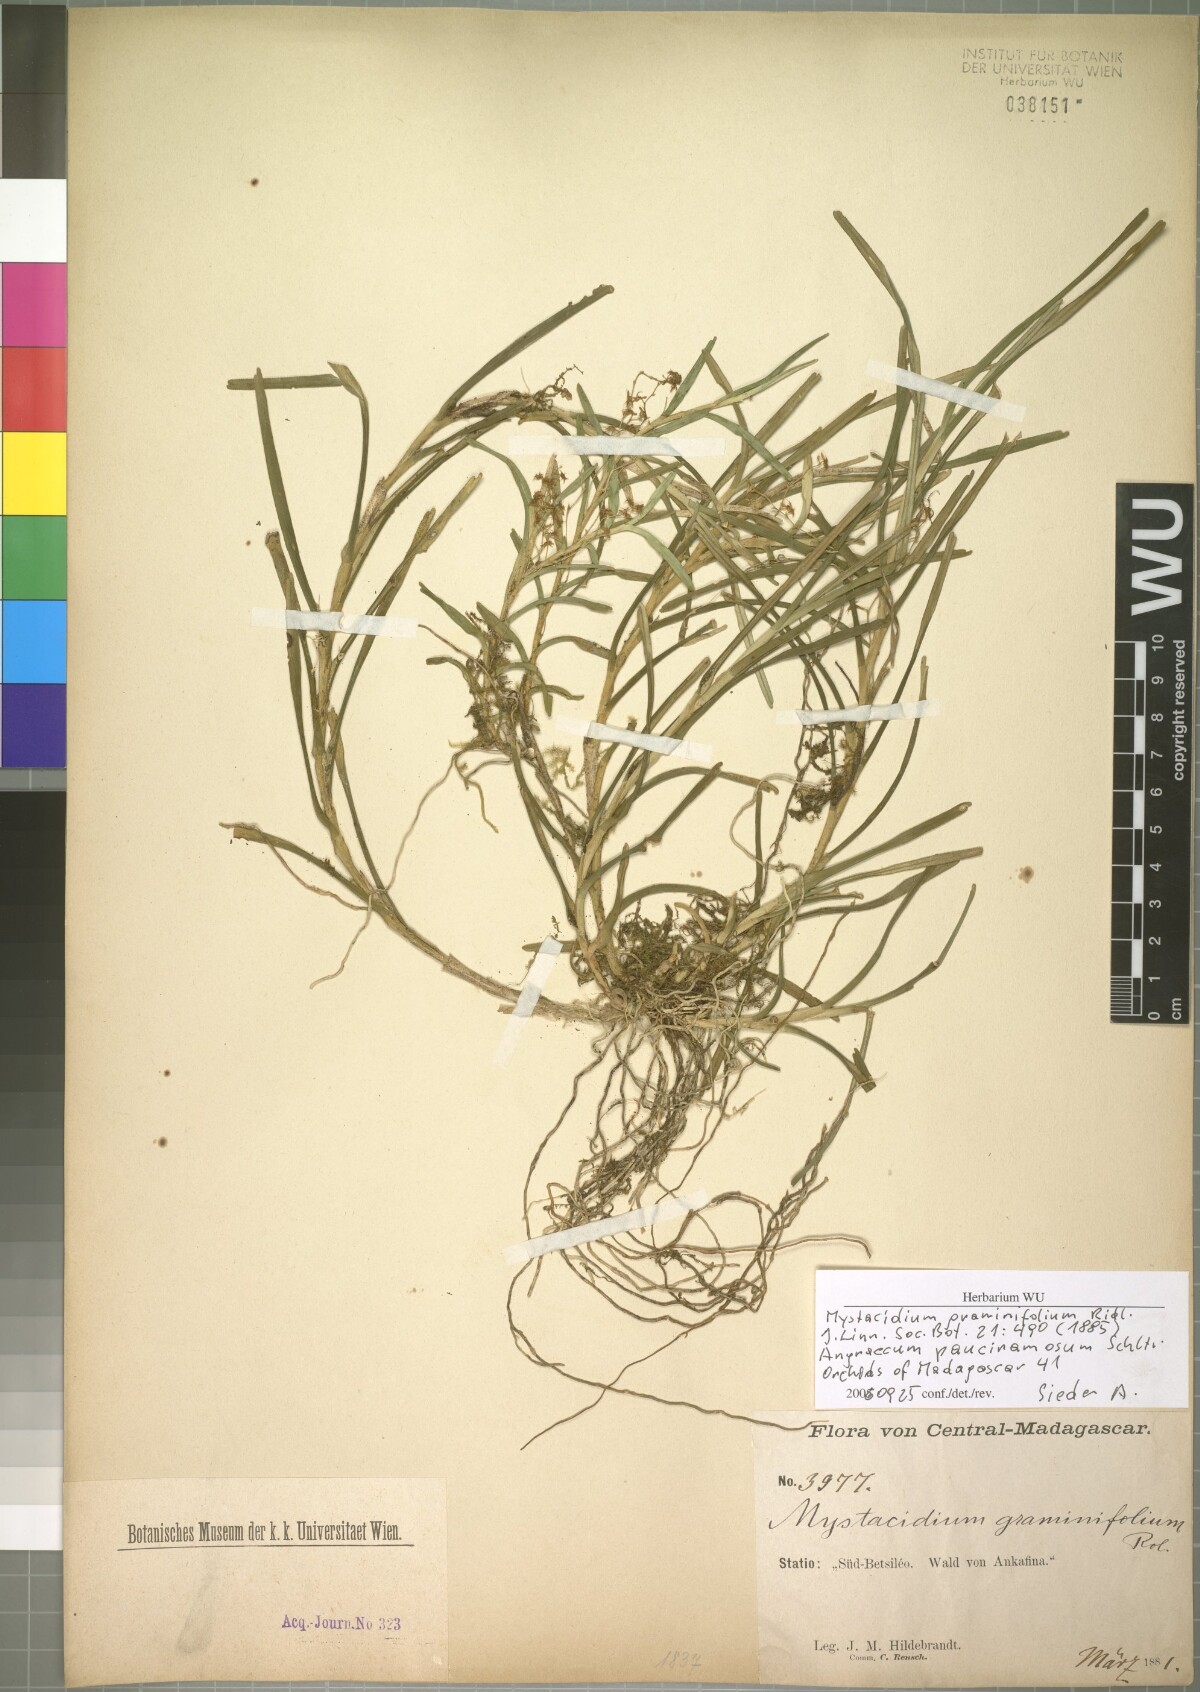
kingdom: Plantae
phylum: Tracheophyta
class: Liliopsida
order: Asparagales
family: Orchidaceae
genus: Angraecum
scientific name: Angraecum pauciramosum
